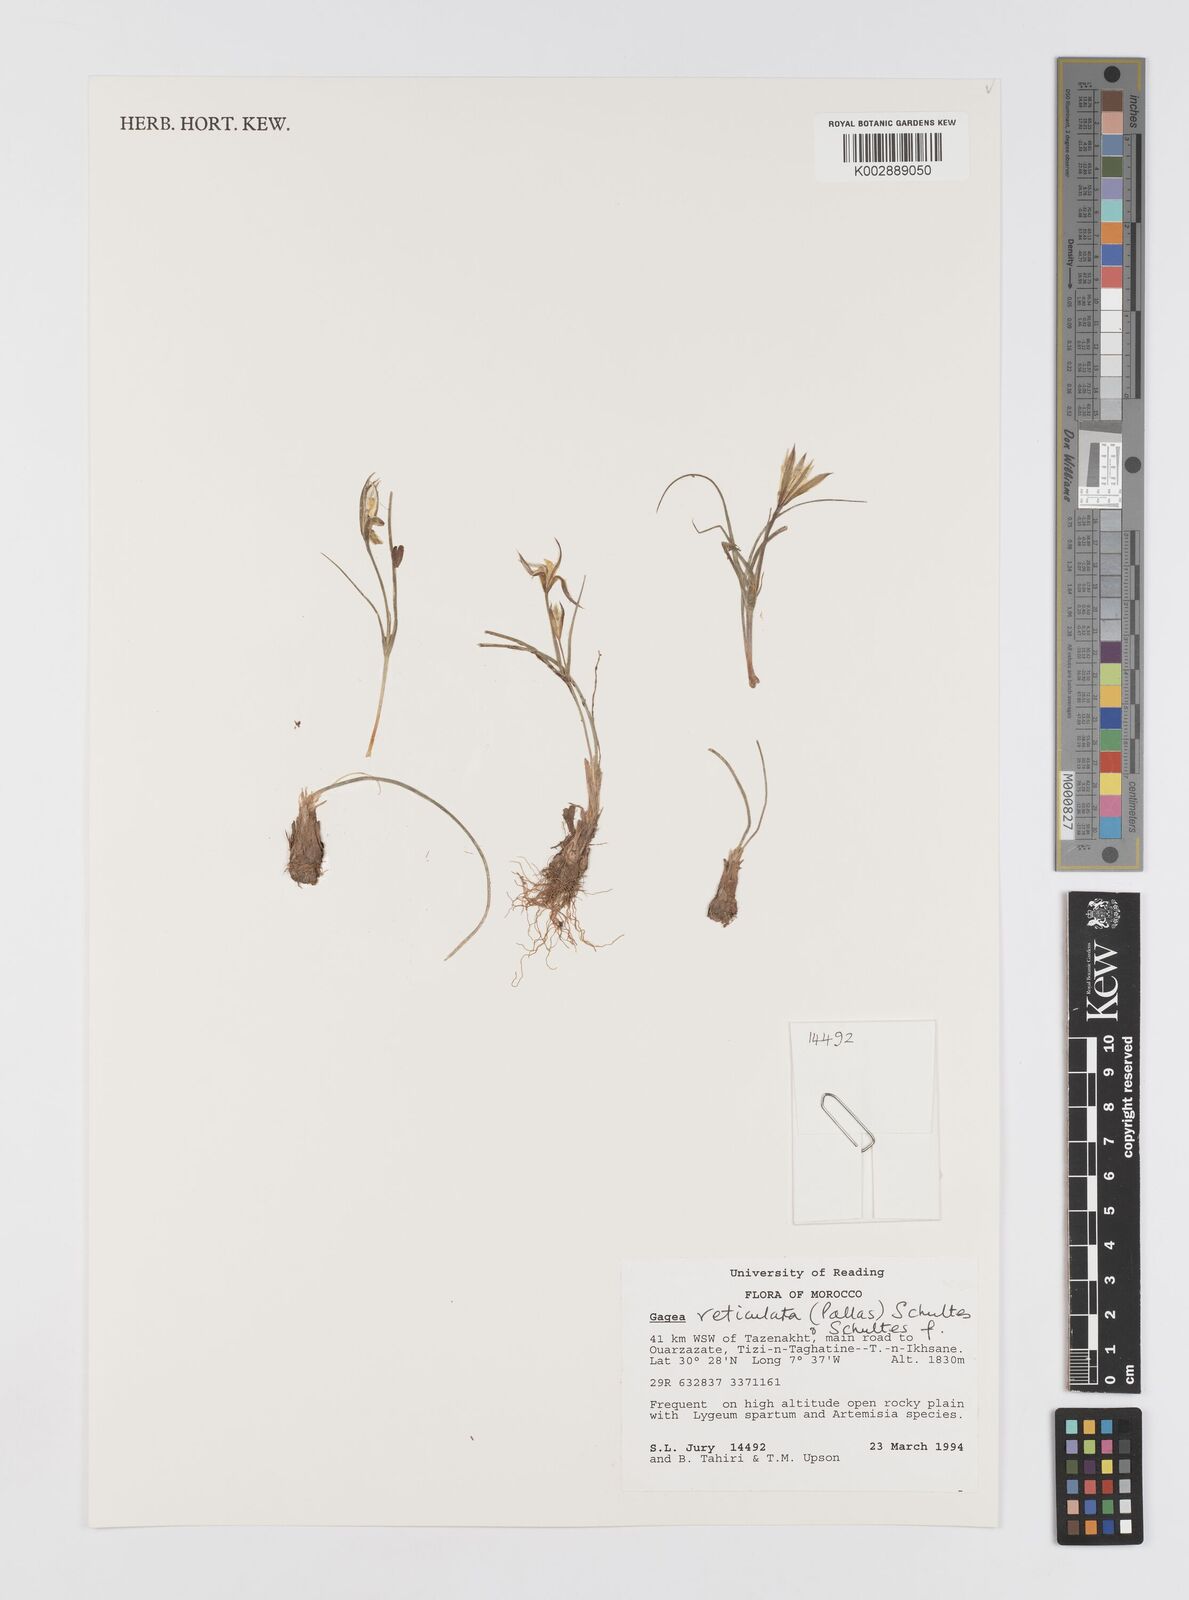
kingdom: Plantae
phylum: Tracheophyta
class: Liliopsida
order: Liliales
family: Liliaceae
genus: Gagea
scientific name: Gagea reticulata
